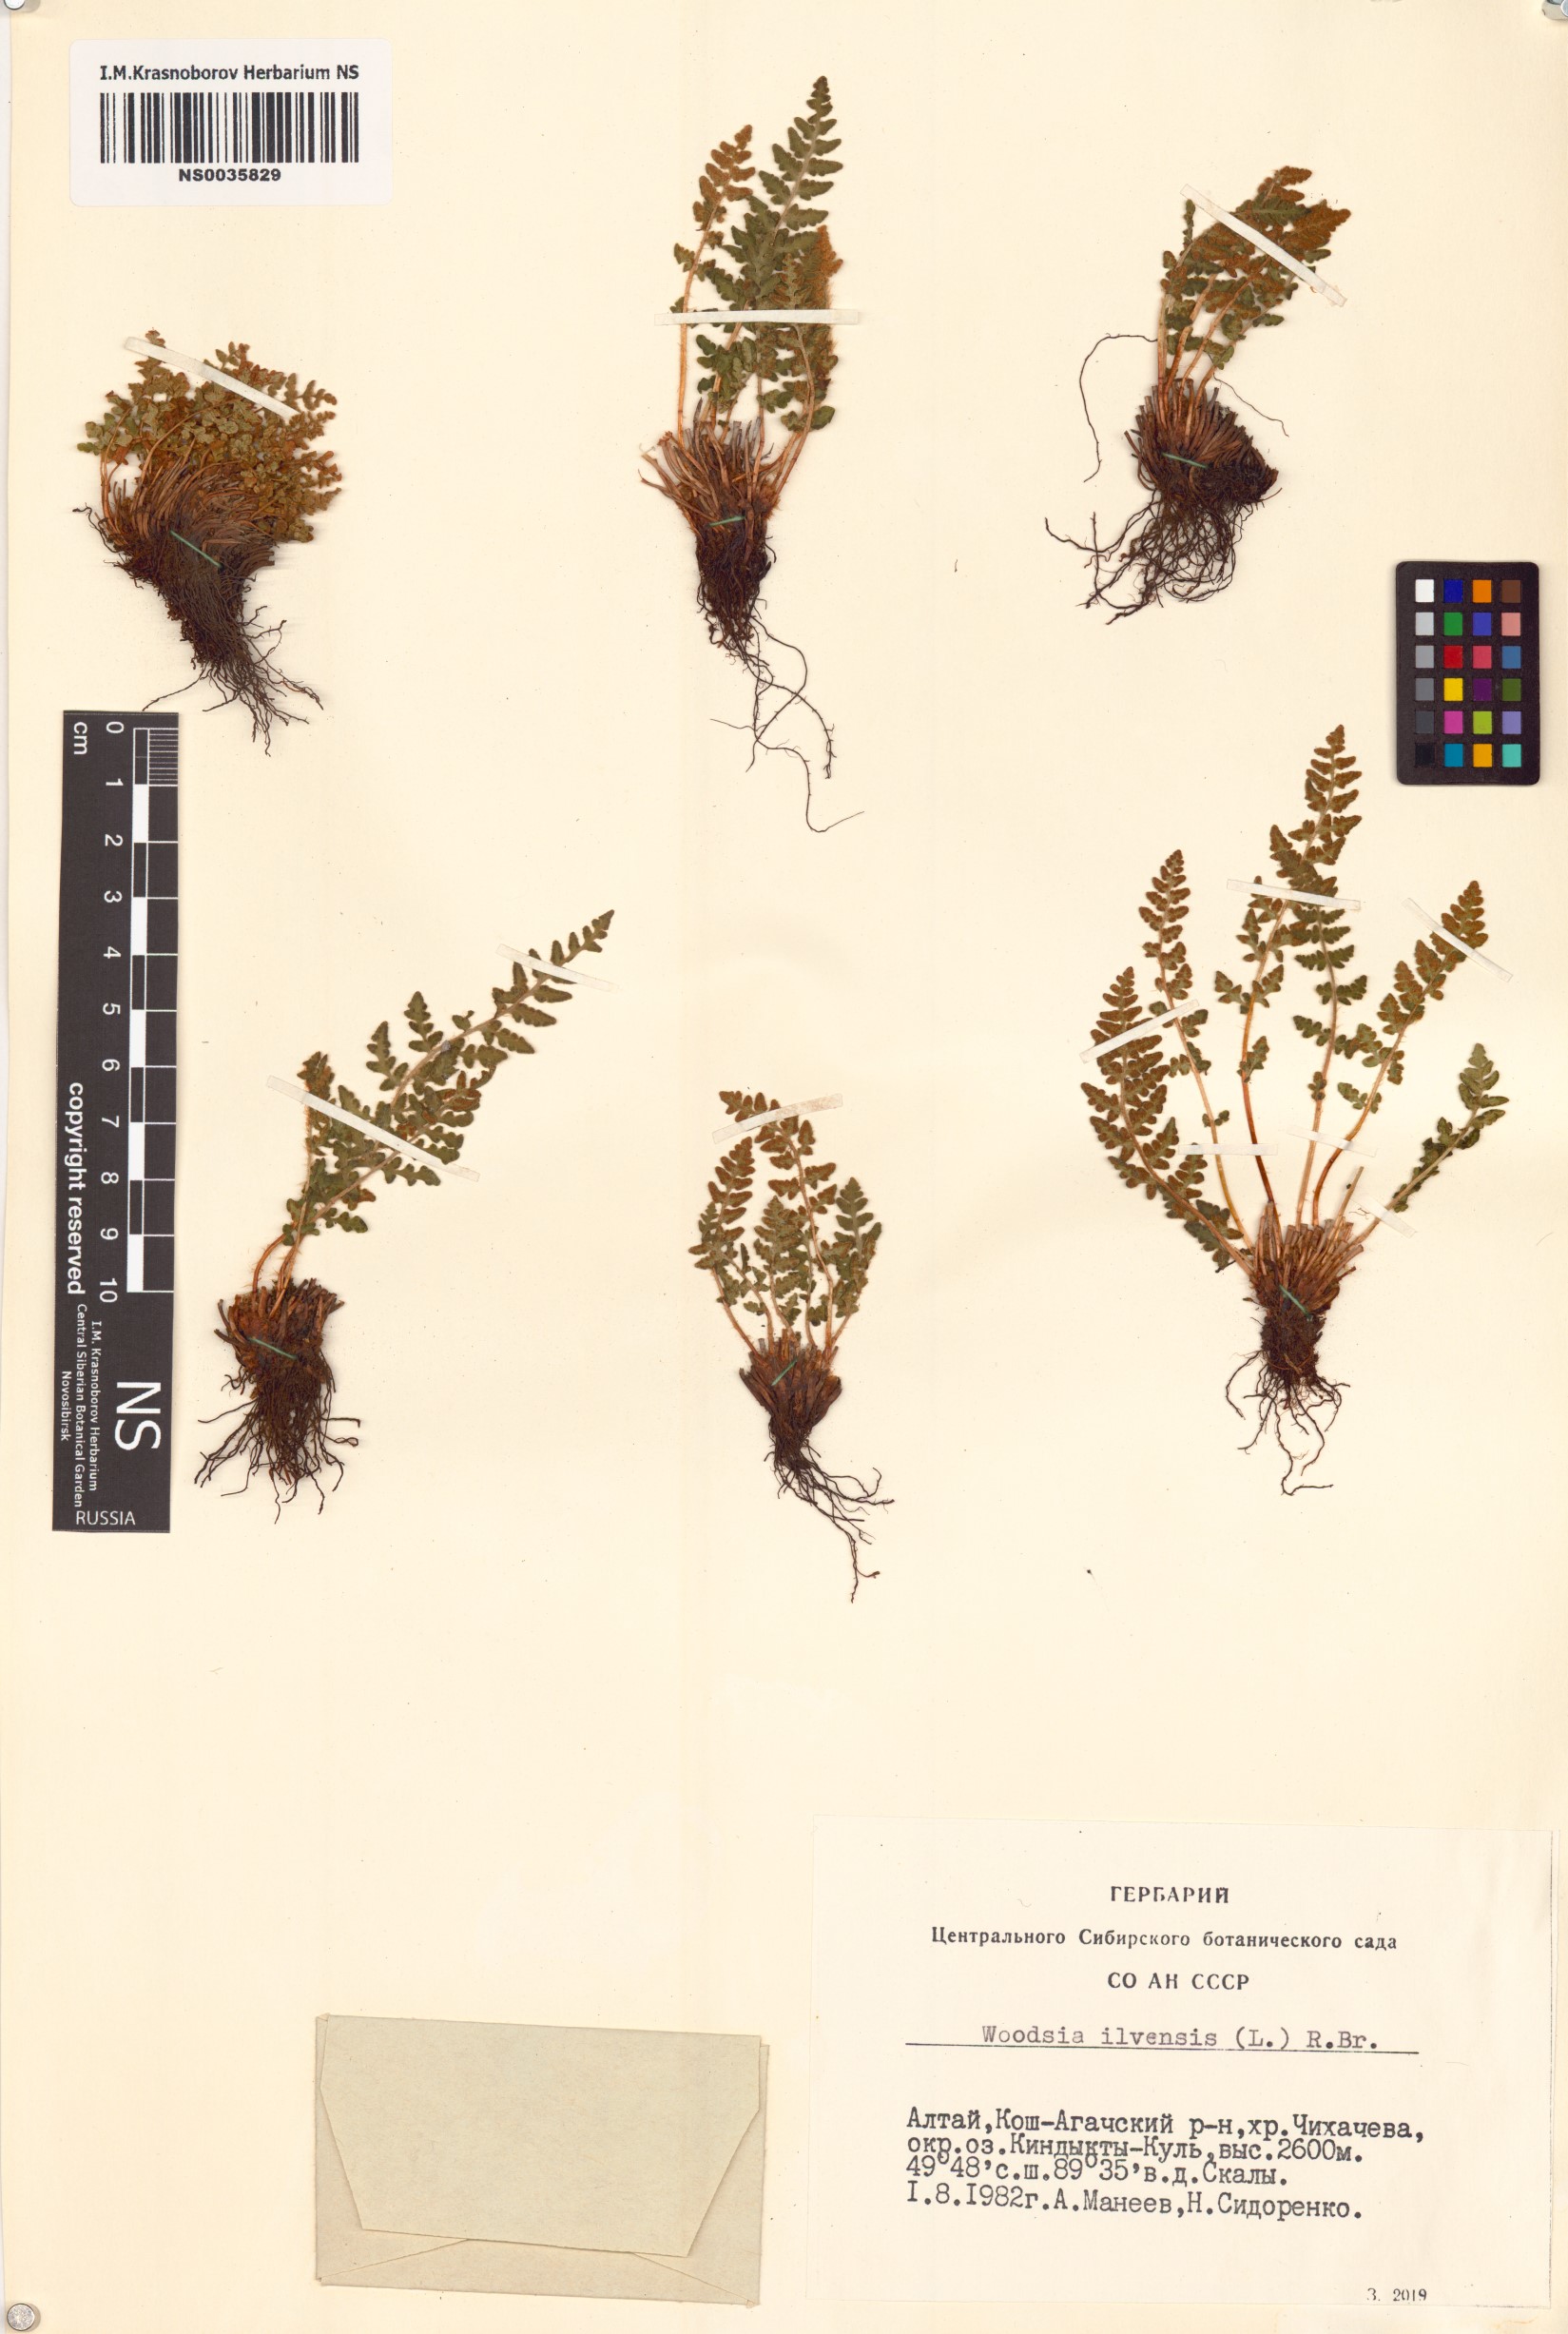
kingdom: Plantae
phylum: Tracheophyta
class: Polypodiopsida
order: Polypodiales
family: Woodsiaceae
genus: Woodsia
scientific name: Woodsia ilvensis
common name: Fragrant woodsia
